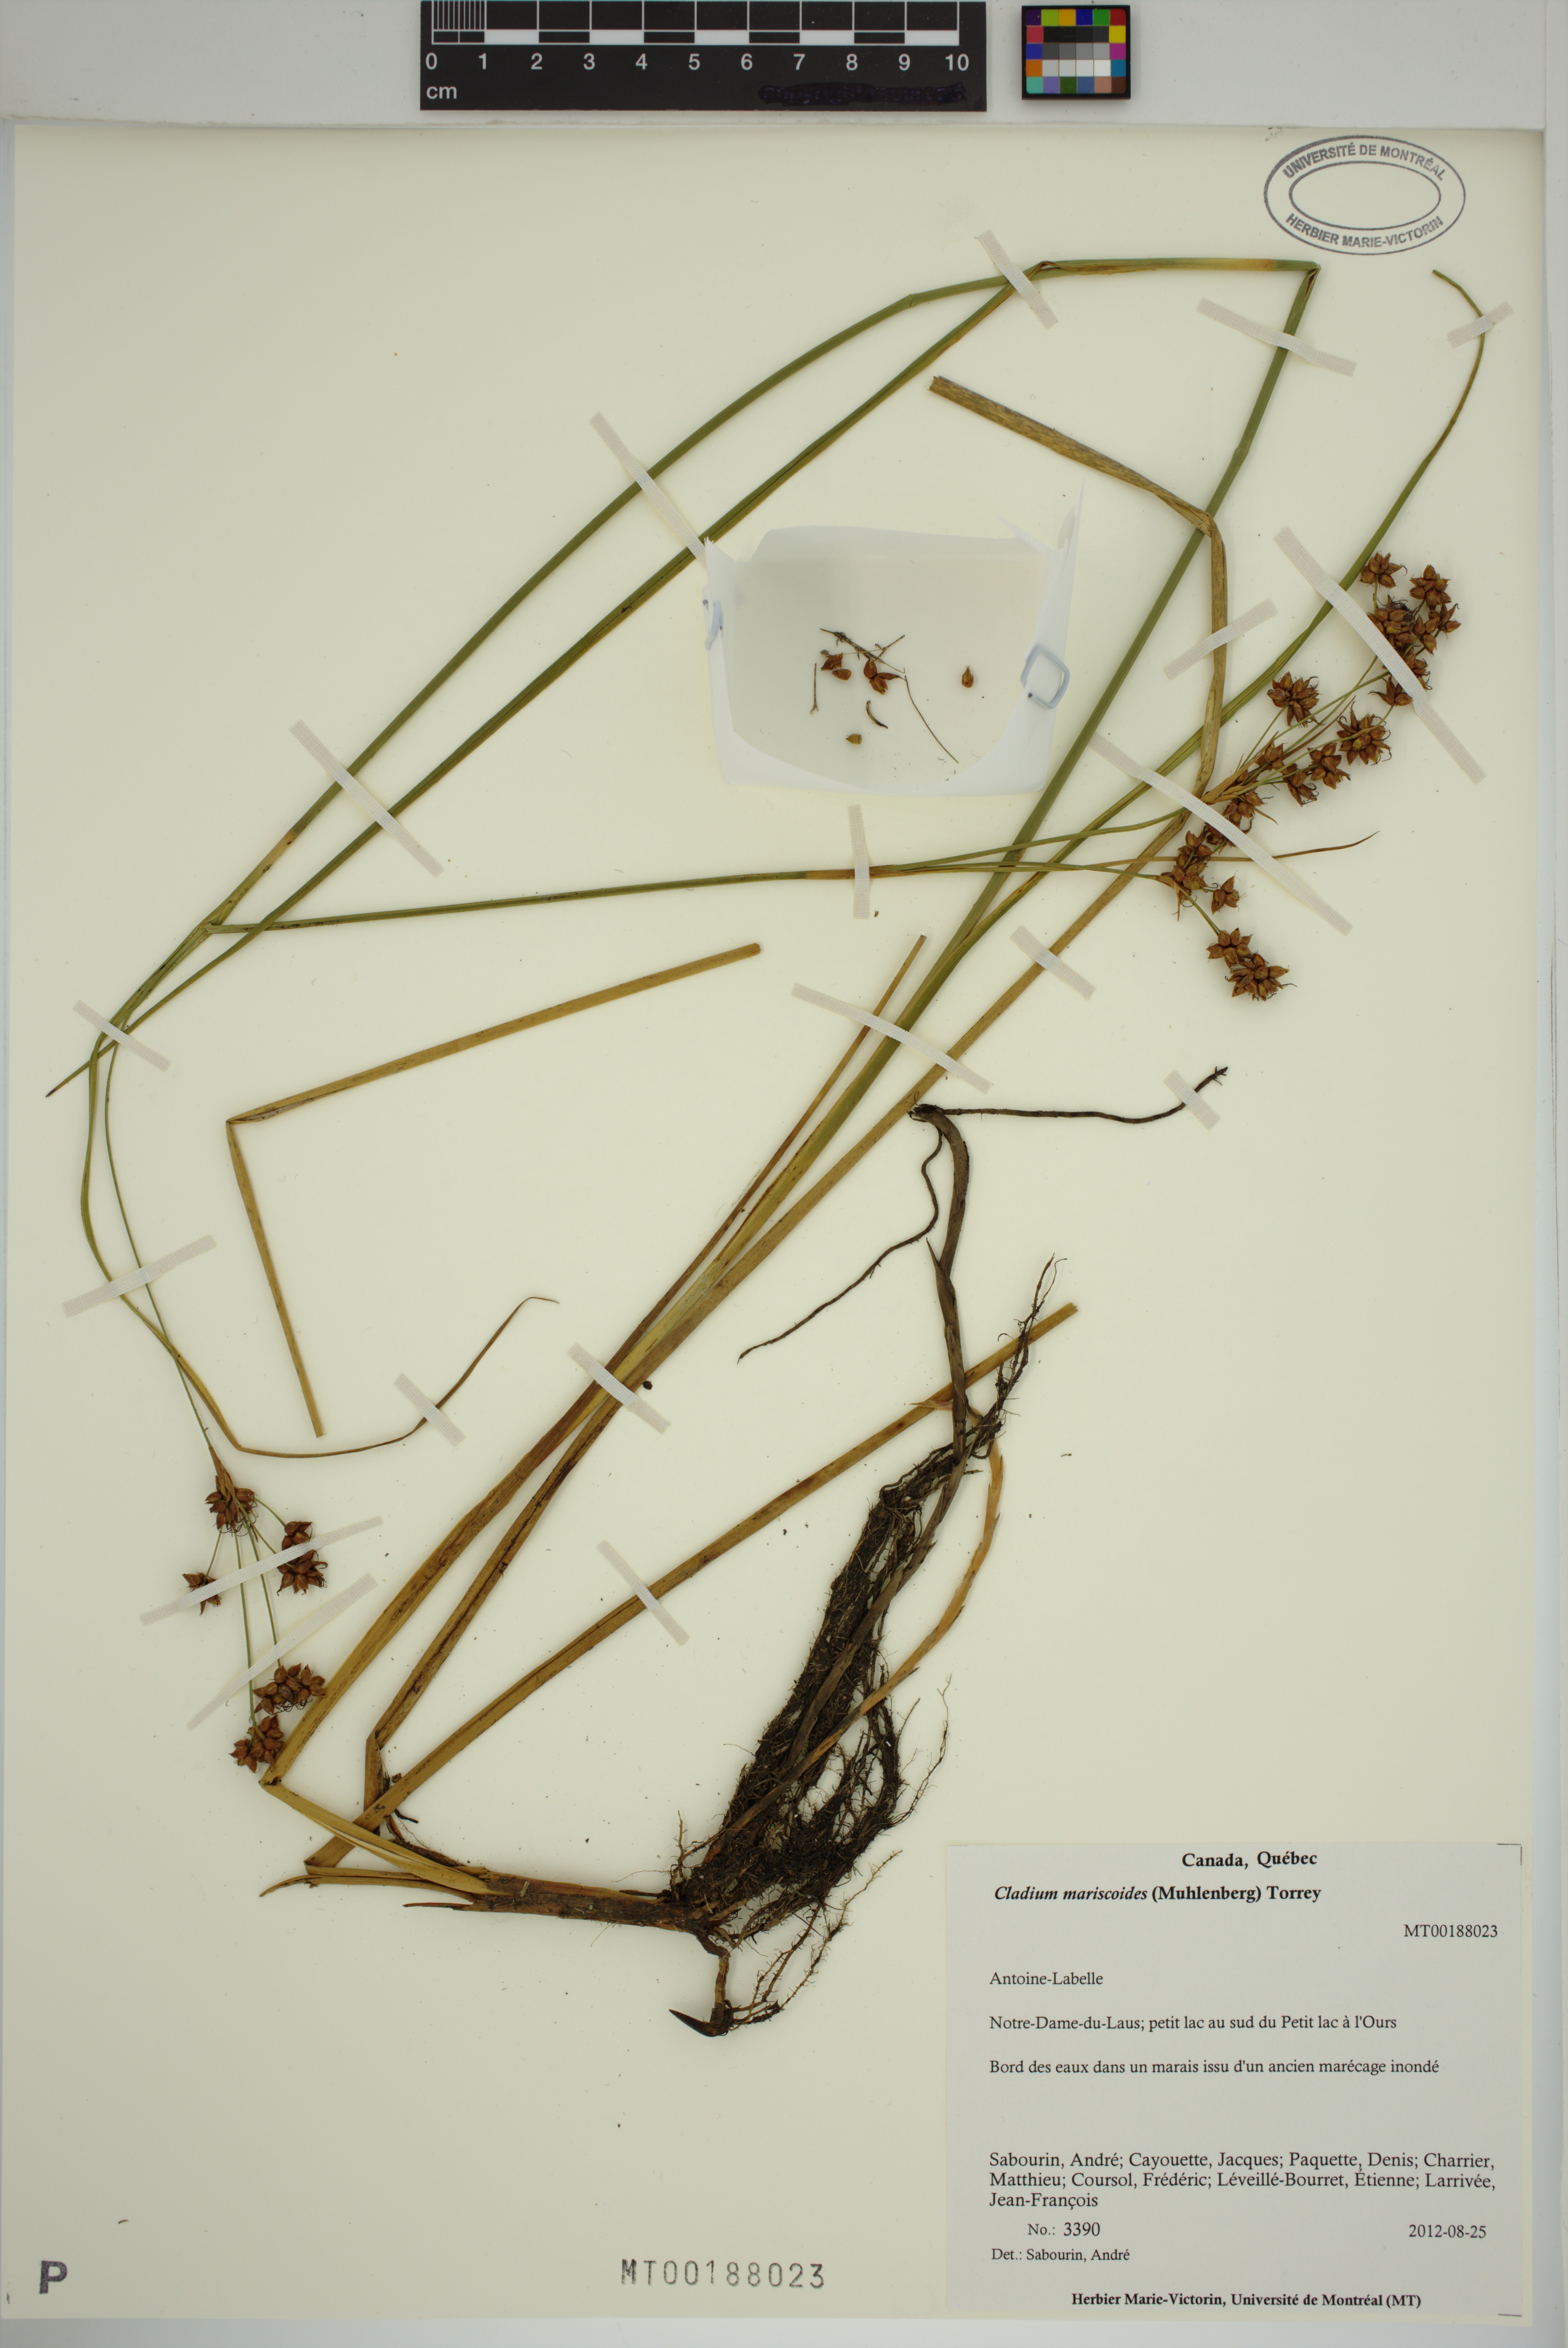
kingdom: Plantae
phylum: Tracheophyta
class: Liliopsida
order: Poales
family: Cyperaceae
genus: Cladium
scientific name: Cladium mariscoides
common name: Smooth sawgrass
